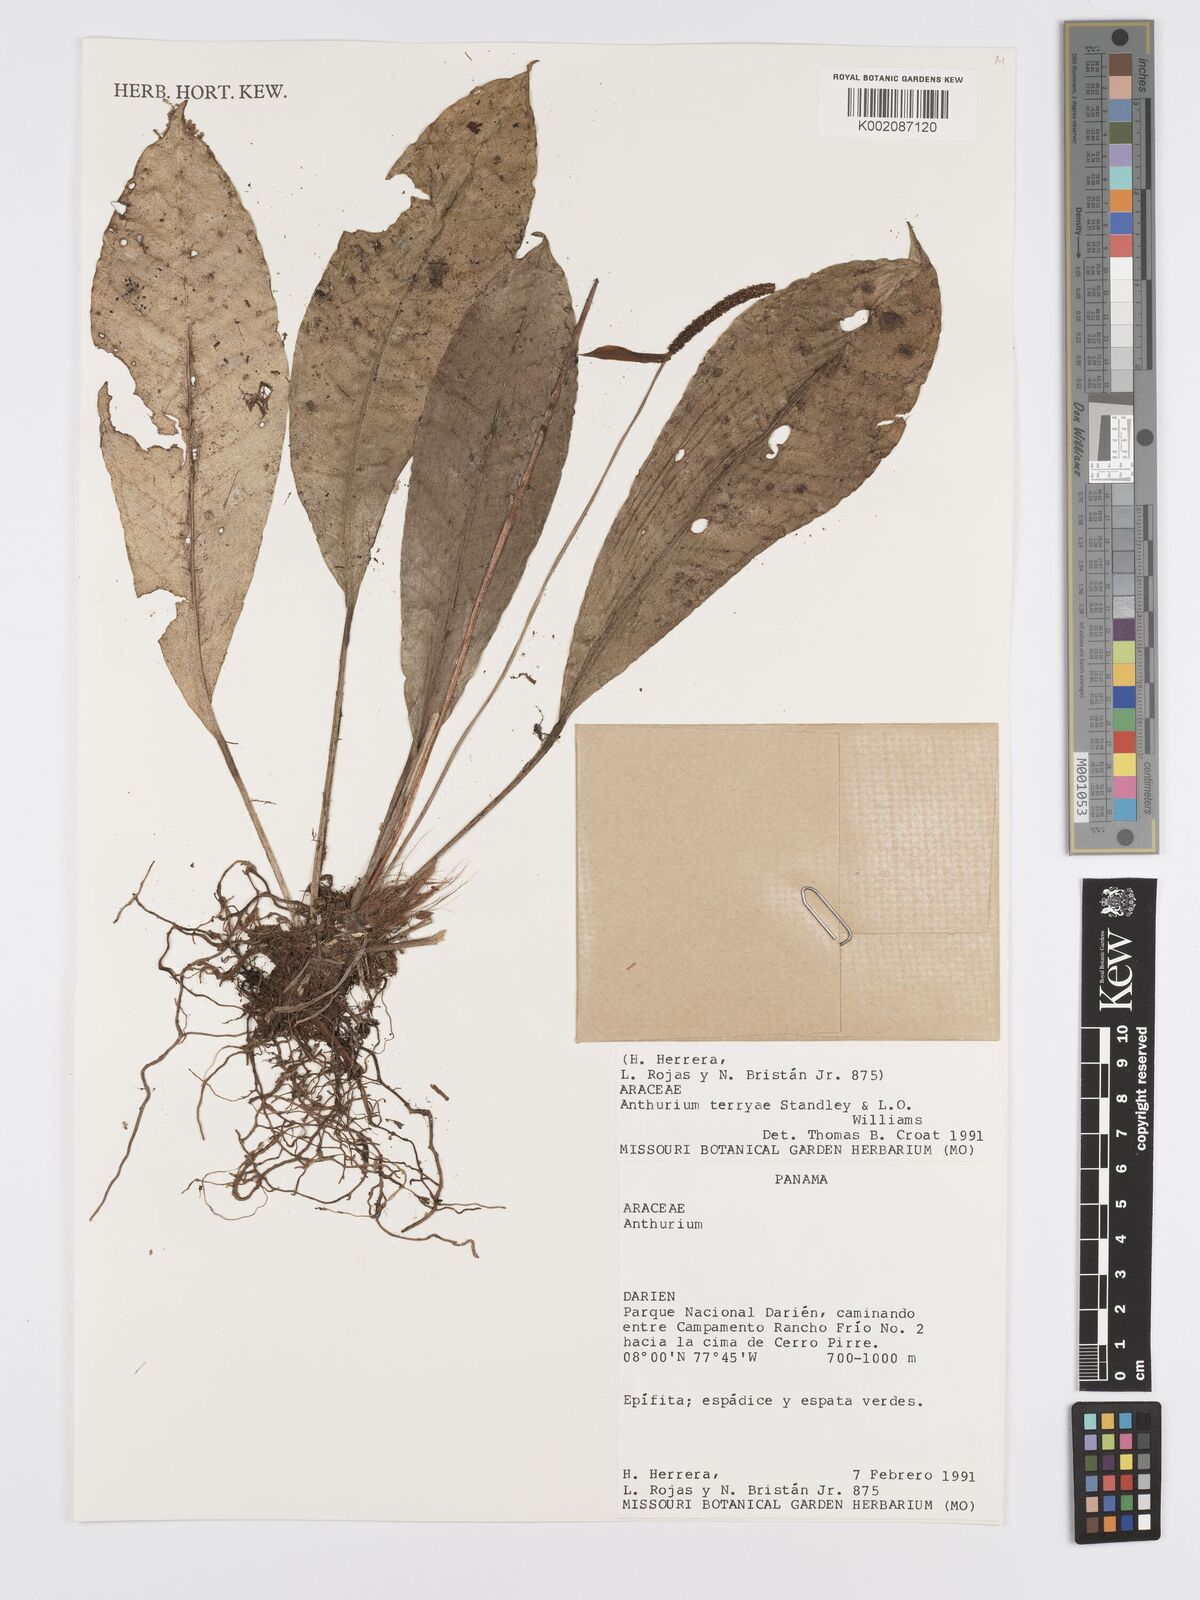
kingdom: Plantae
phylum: Tracheophyta
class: Liliopsida
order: Alismatales
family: Araceae
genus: Anthurium
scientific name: Anthurium terryae
